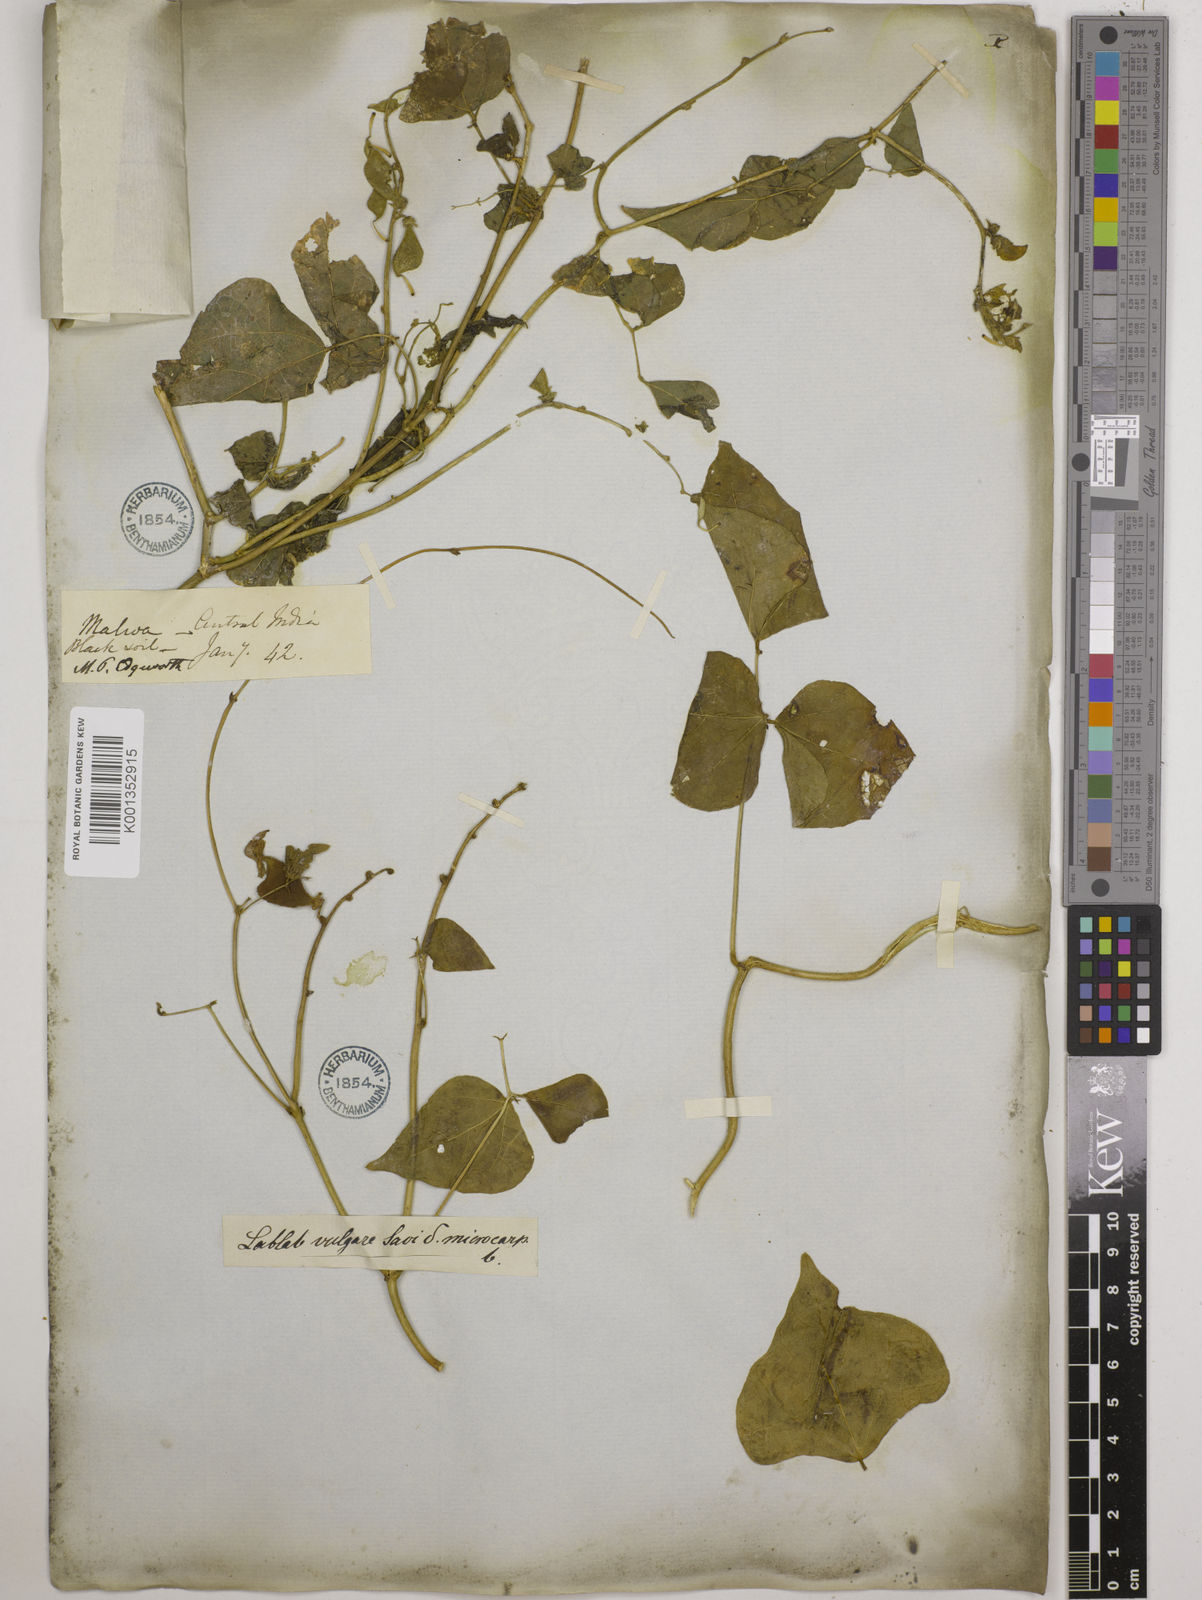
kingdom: Plantae
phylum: Tracheophyta
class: Magnoliopsida
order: Fabales
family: Fabaceae
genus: Lablab
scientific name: Lablab purpureus
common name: Lablab-bean
